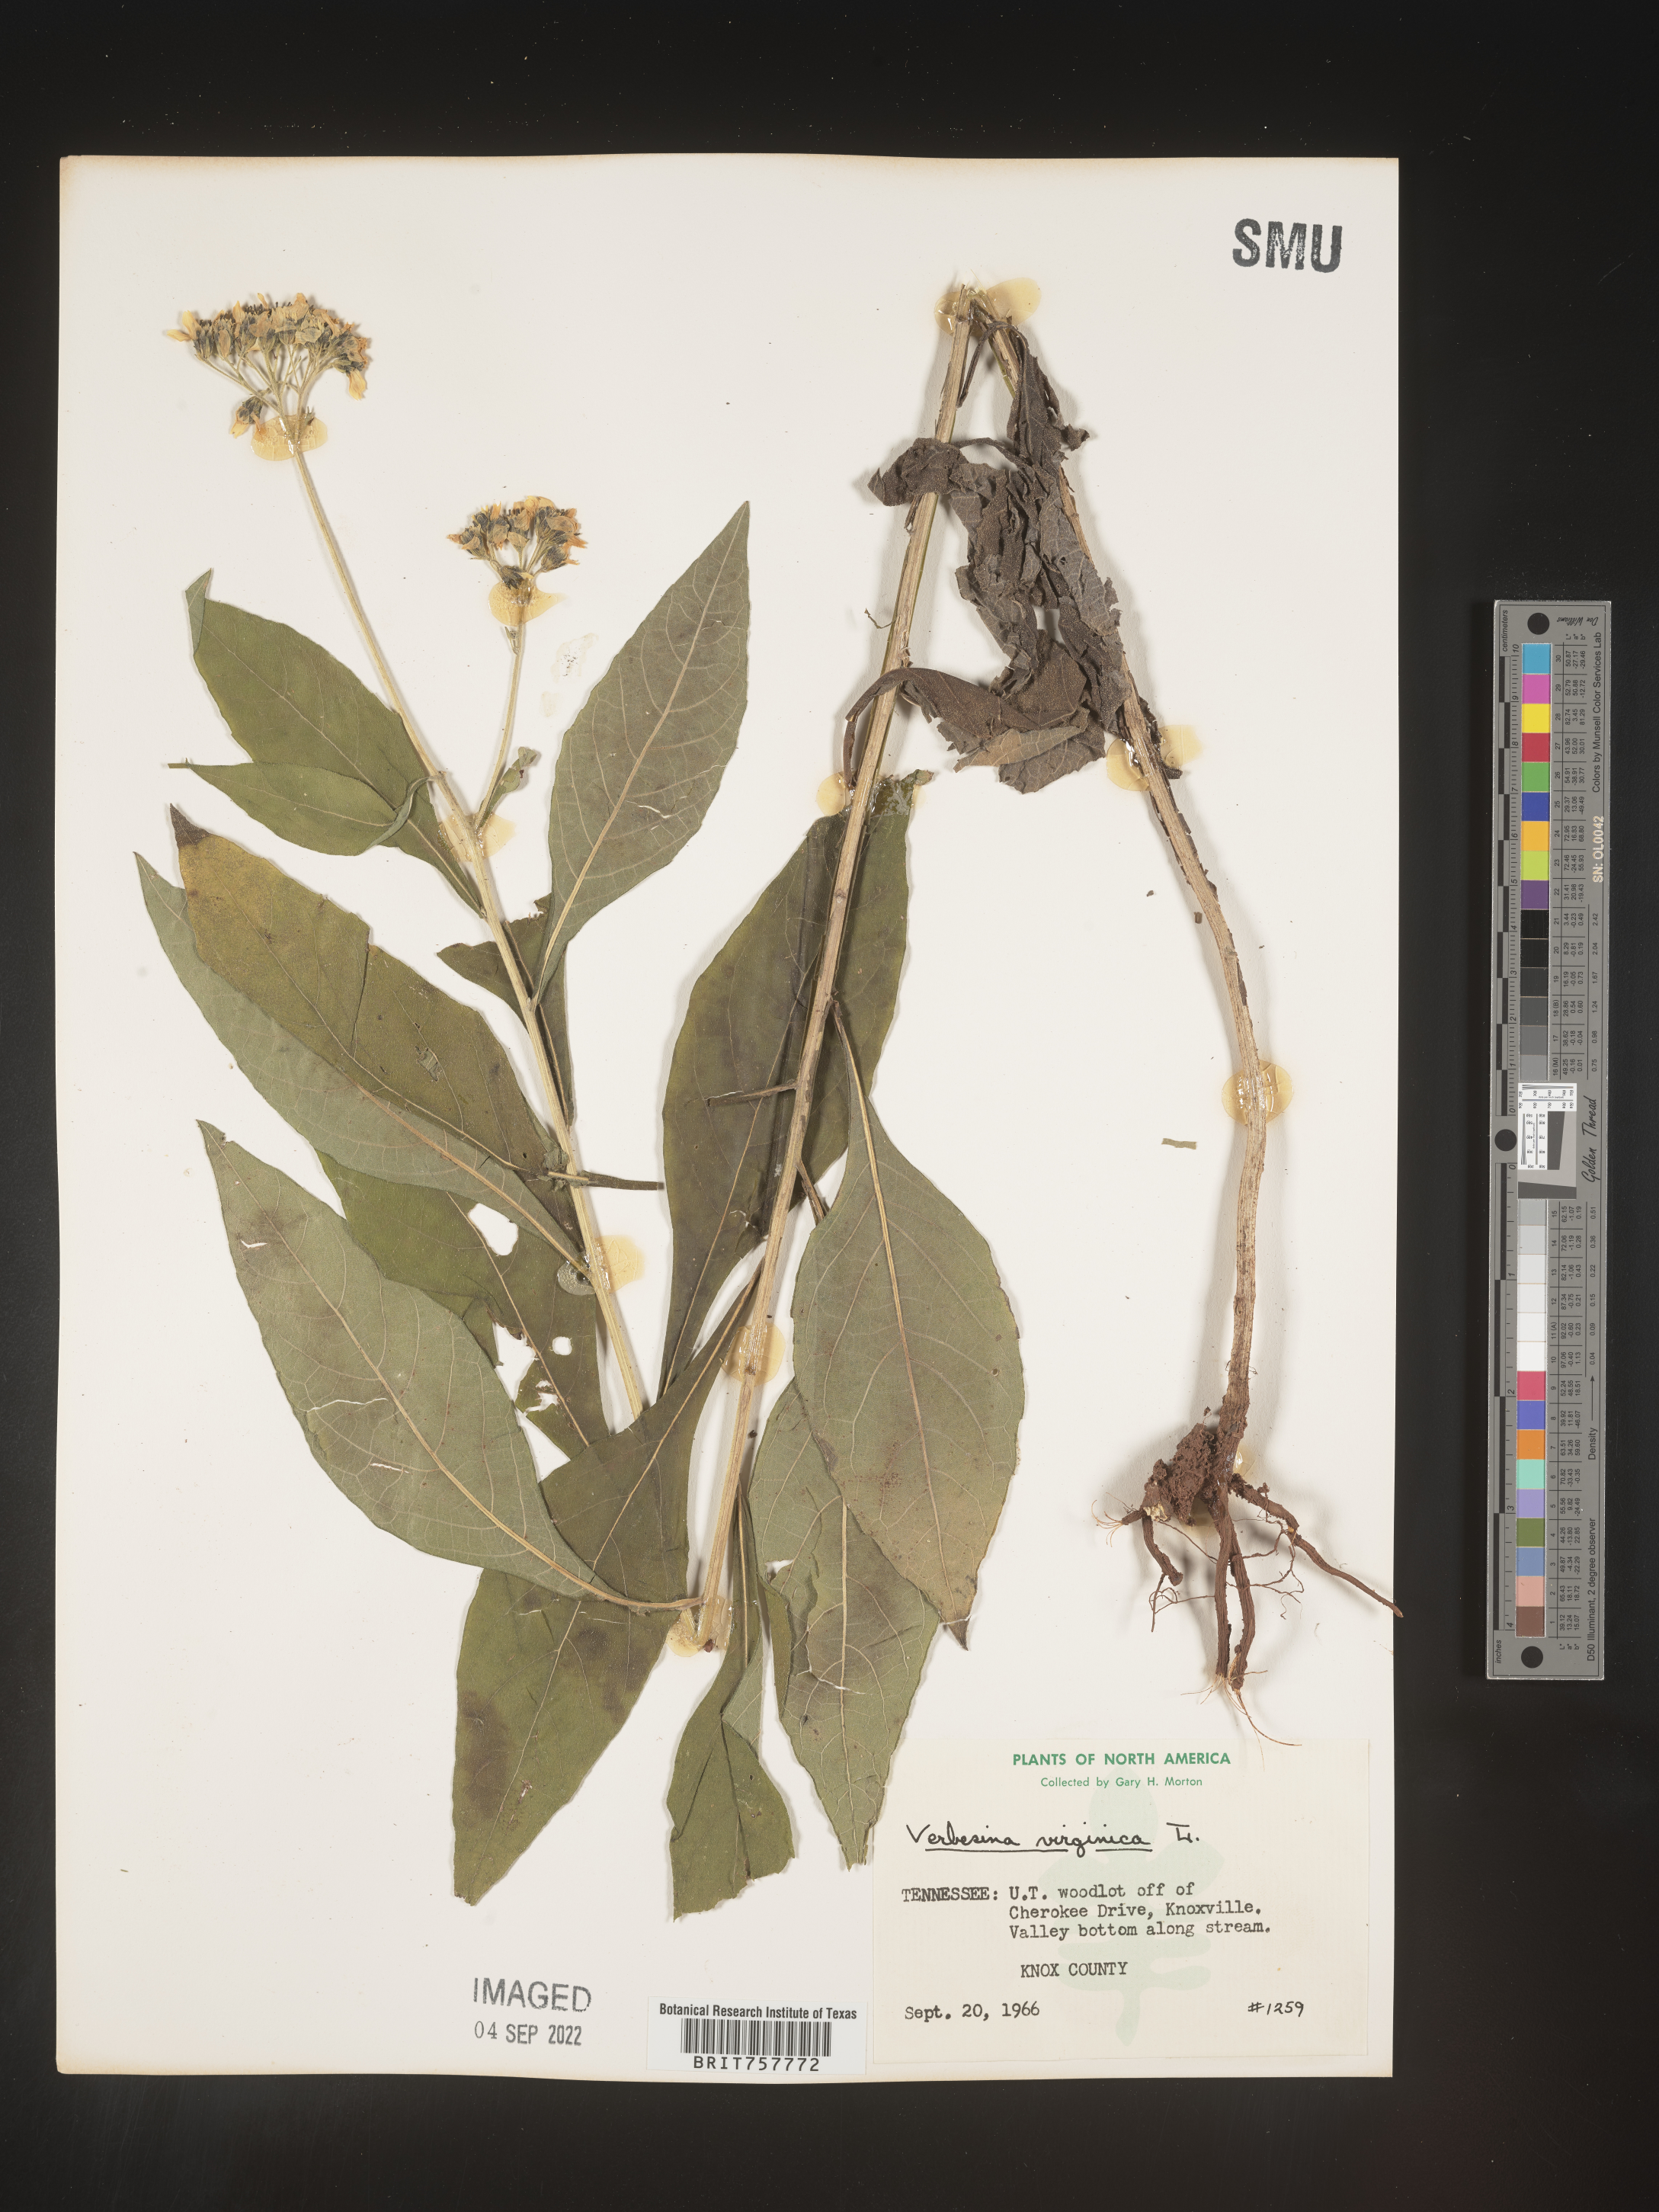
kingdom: Plantae
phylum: Tracheophyta
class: Magnoliopsida
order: Asterales
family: Asteraceae
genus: Verbesina
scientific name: Verbesina virginica
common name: Frostweed
